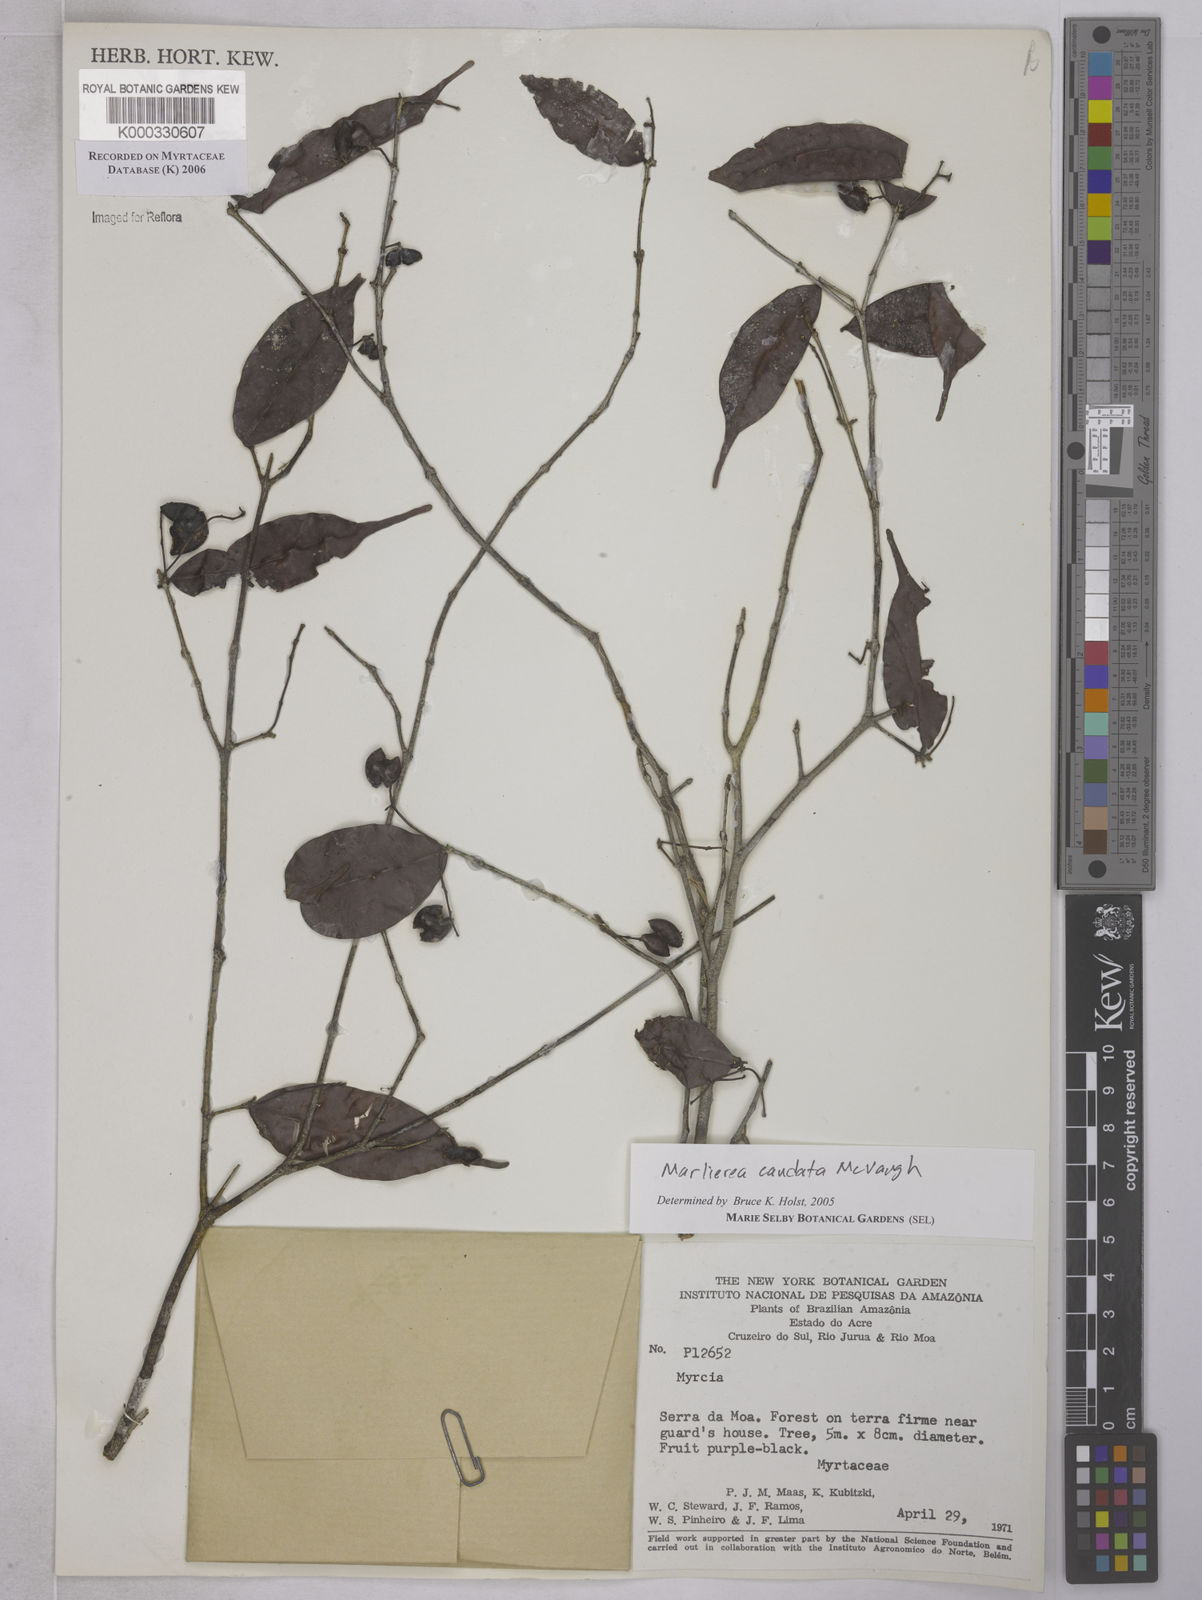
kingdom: Plantae
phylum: Tracheophyta
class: Magnoliopsida
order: Myrtales
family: Myrtaceae
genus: Myrcia
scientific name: Myrcia caudata
